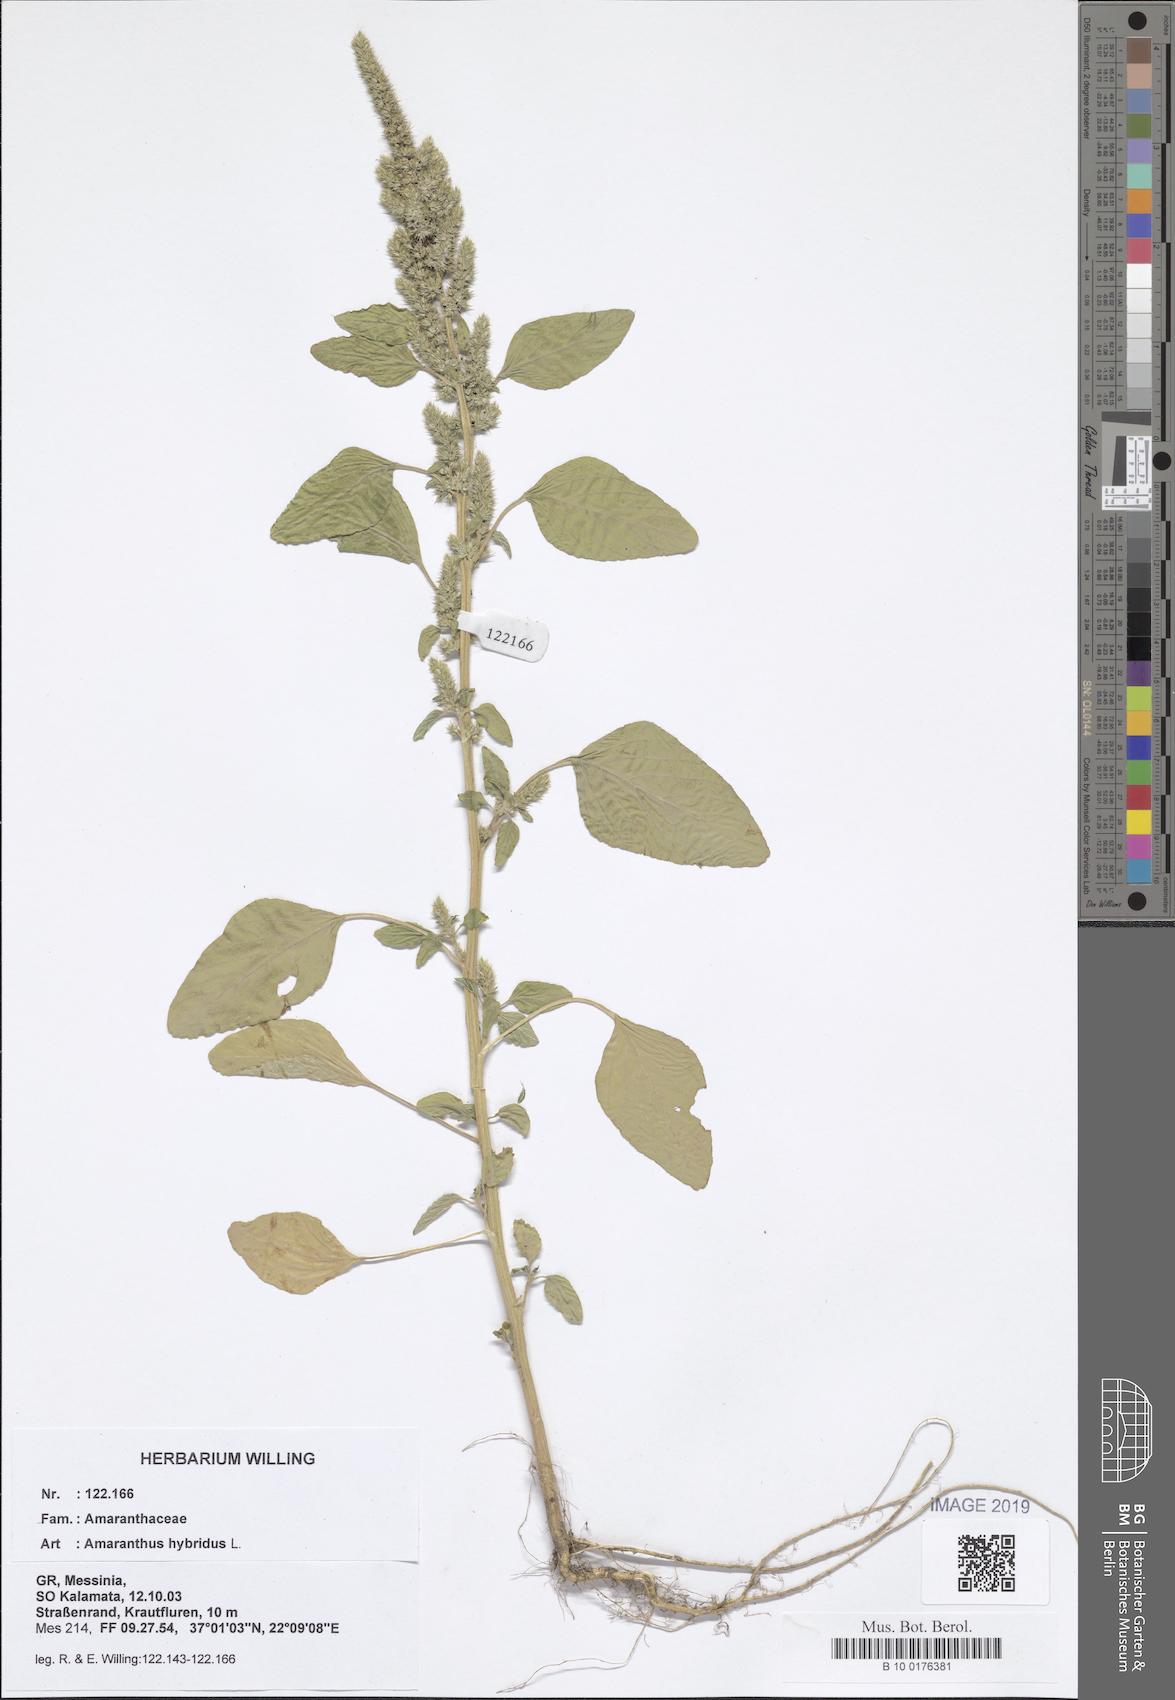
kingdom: Plantae
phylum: Tracheophyta
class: Magnoliopsida
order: Caryophyllales
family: Amaranthaceae
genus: Amaranthus
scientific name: Amaranthus hybridus
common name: Green amaranth
